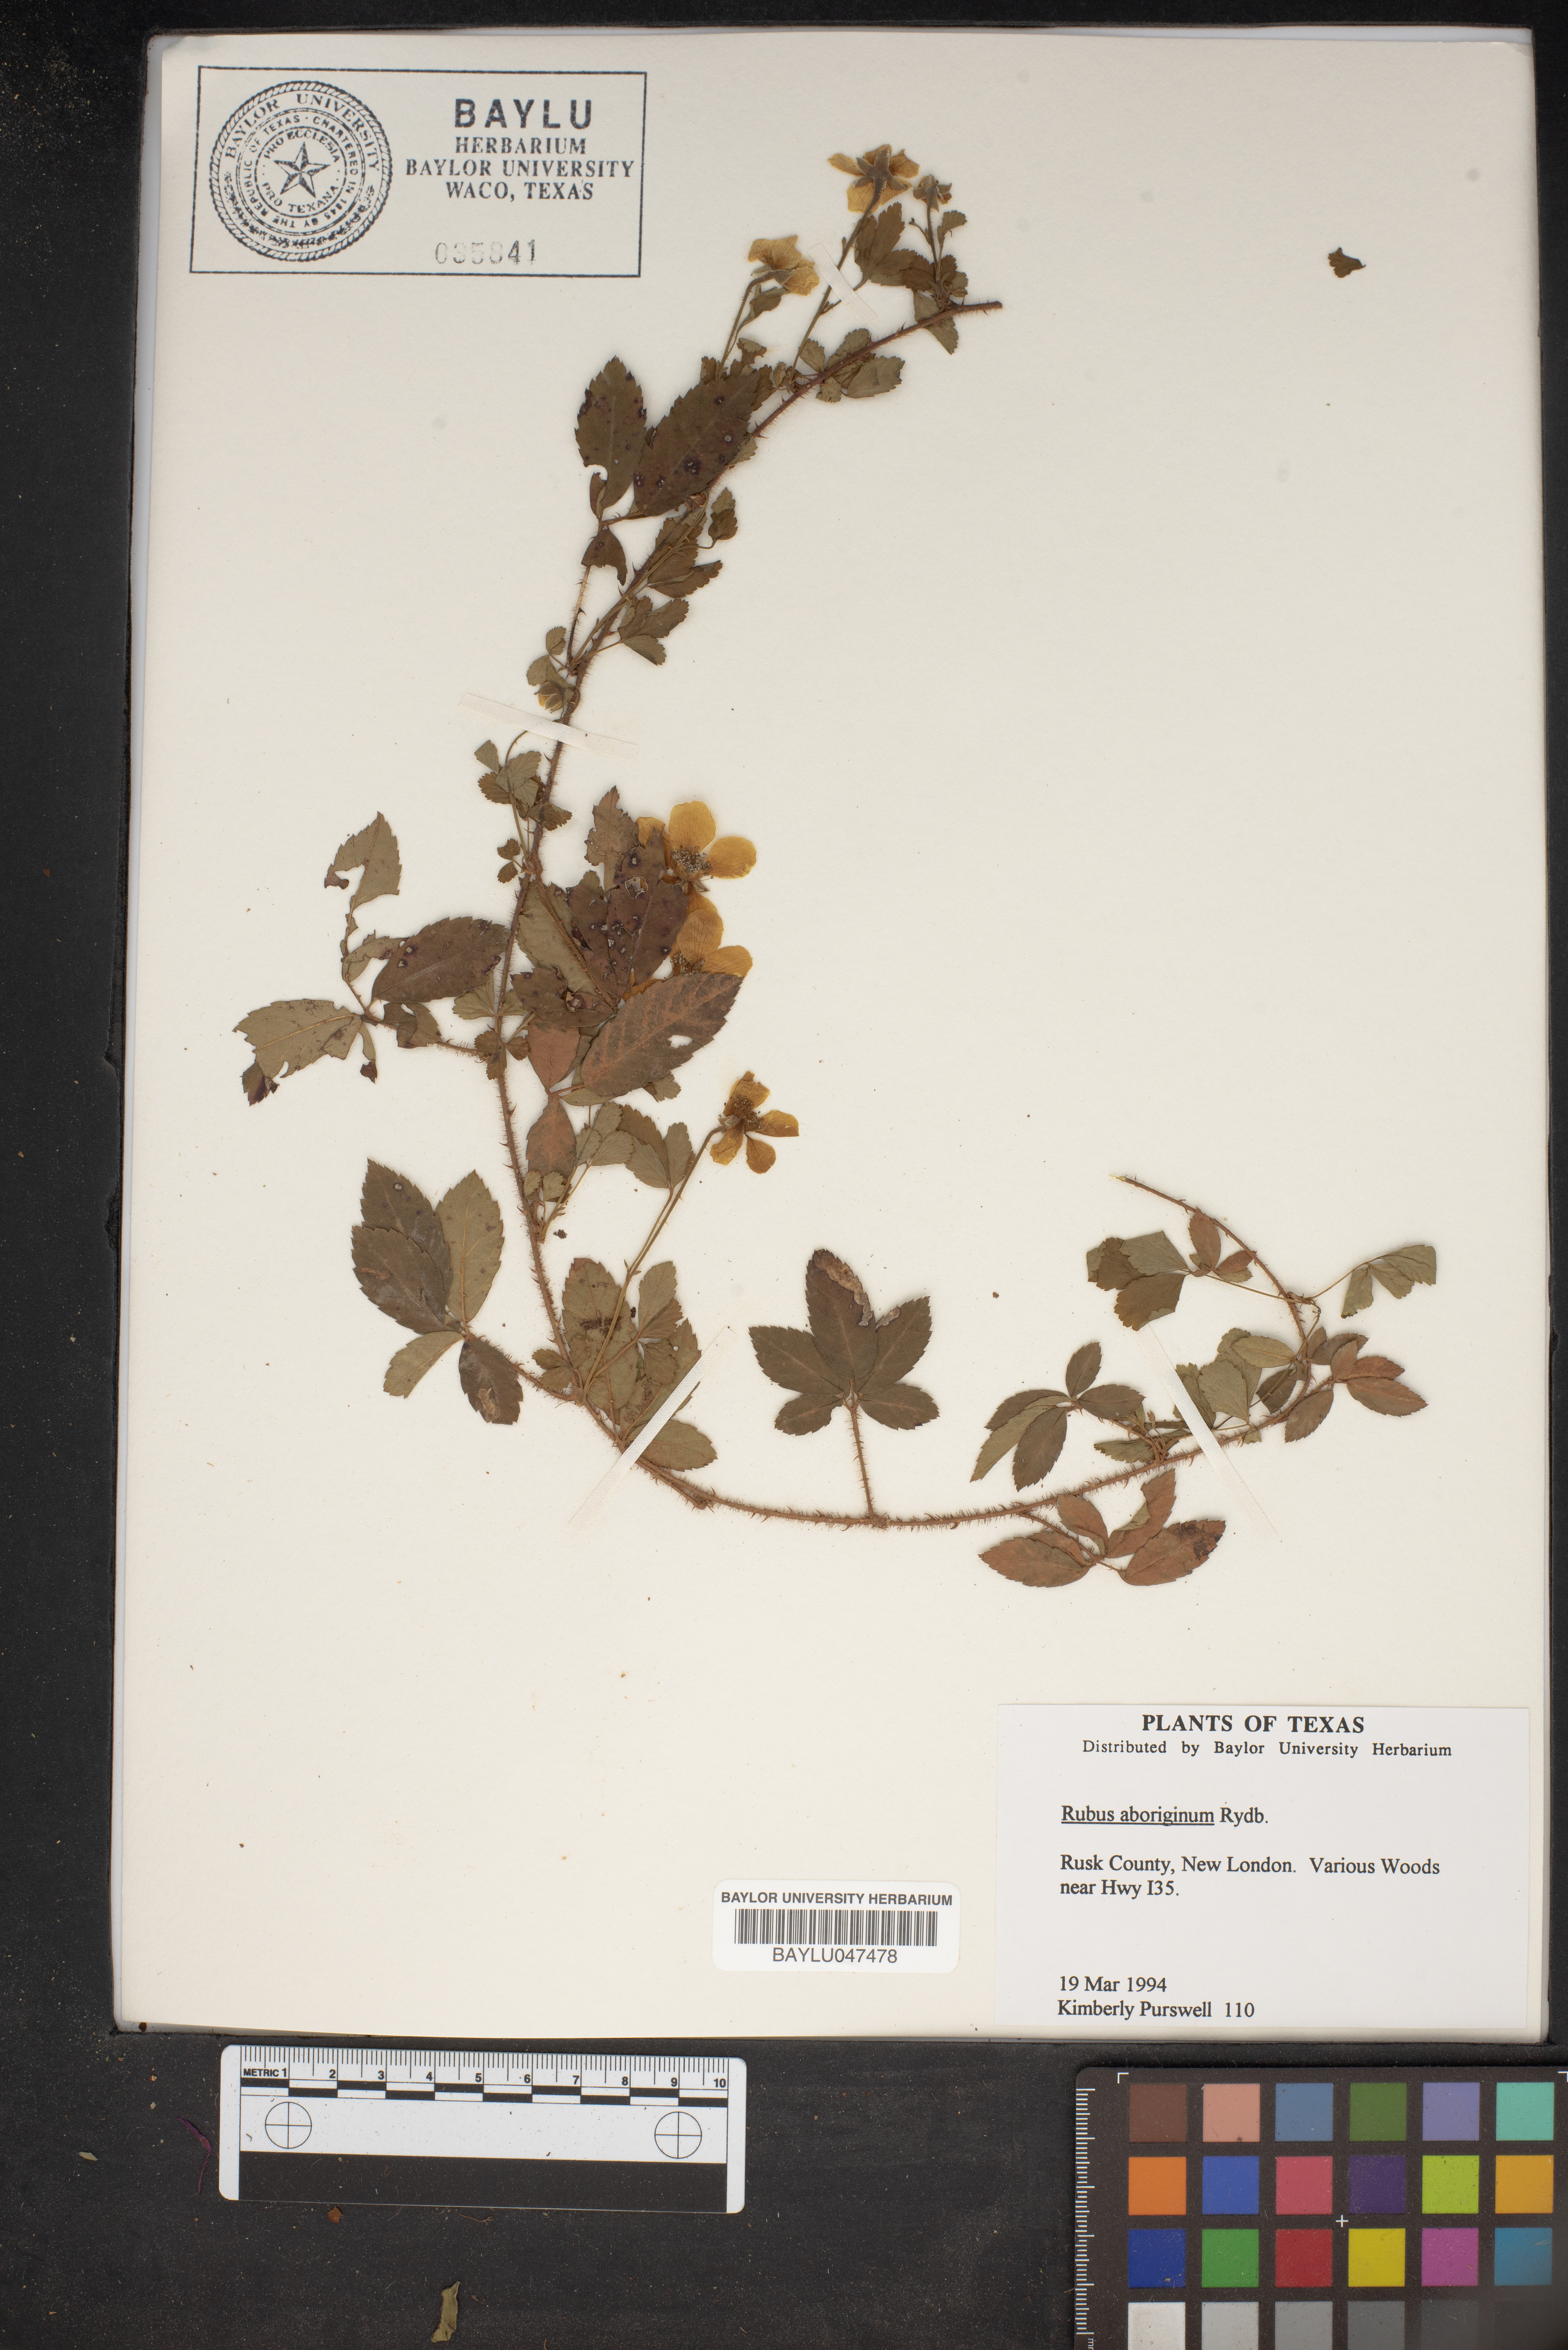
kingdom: Plantae
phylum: Tracheophyta
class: Magnoliopsida
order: Rosales
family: Rosaceae
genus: Rubus
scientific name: Rubus aboriginum
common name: Mayes dewberry
